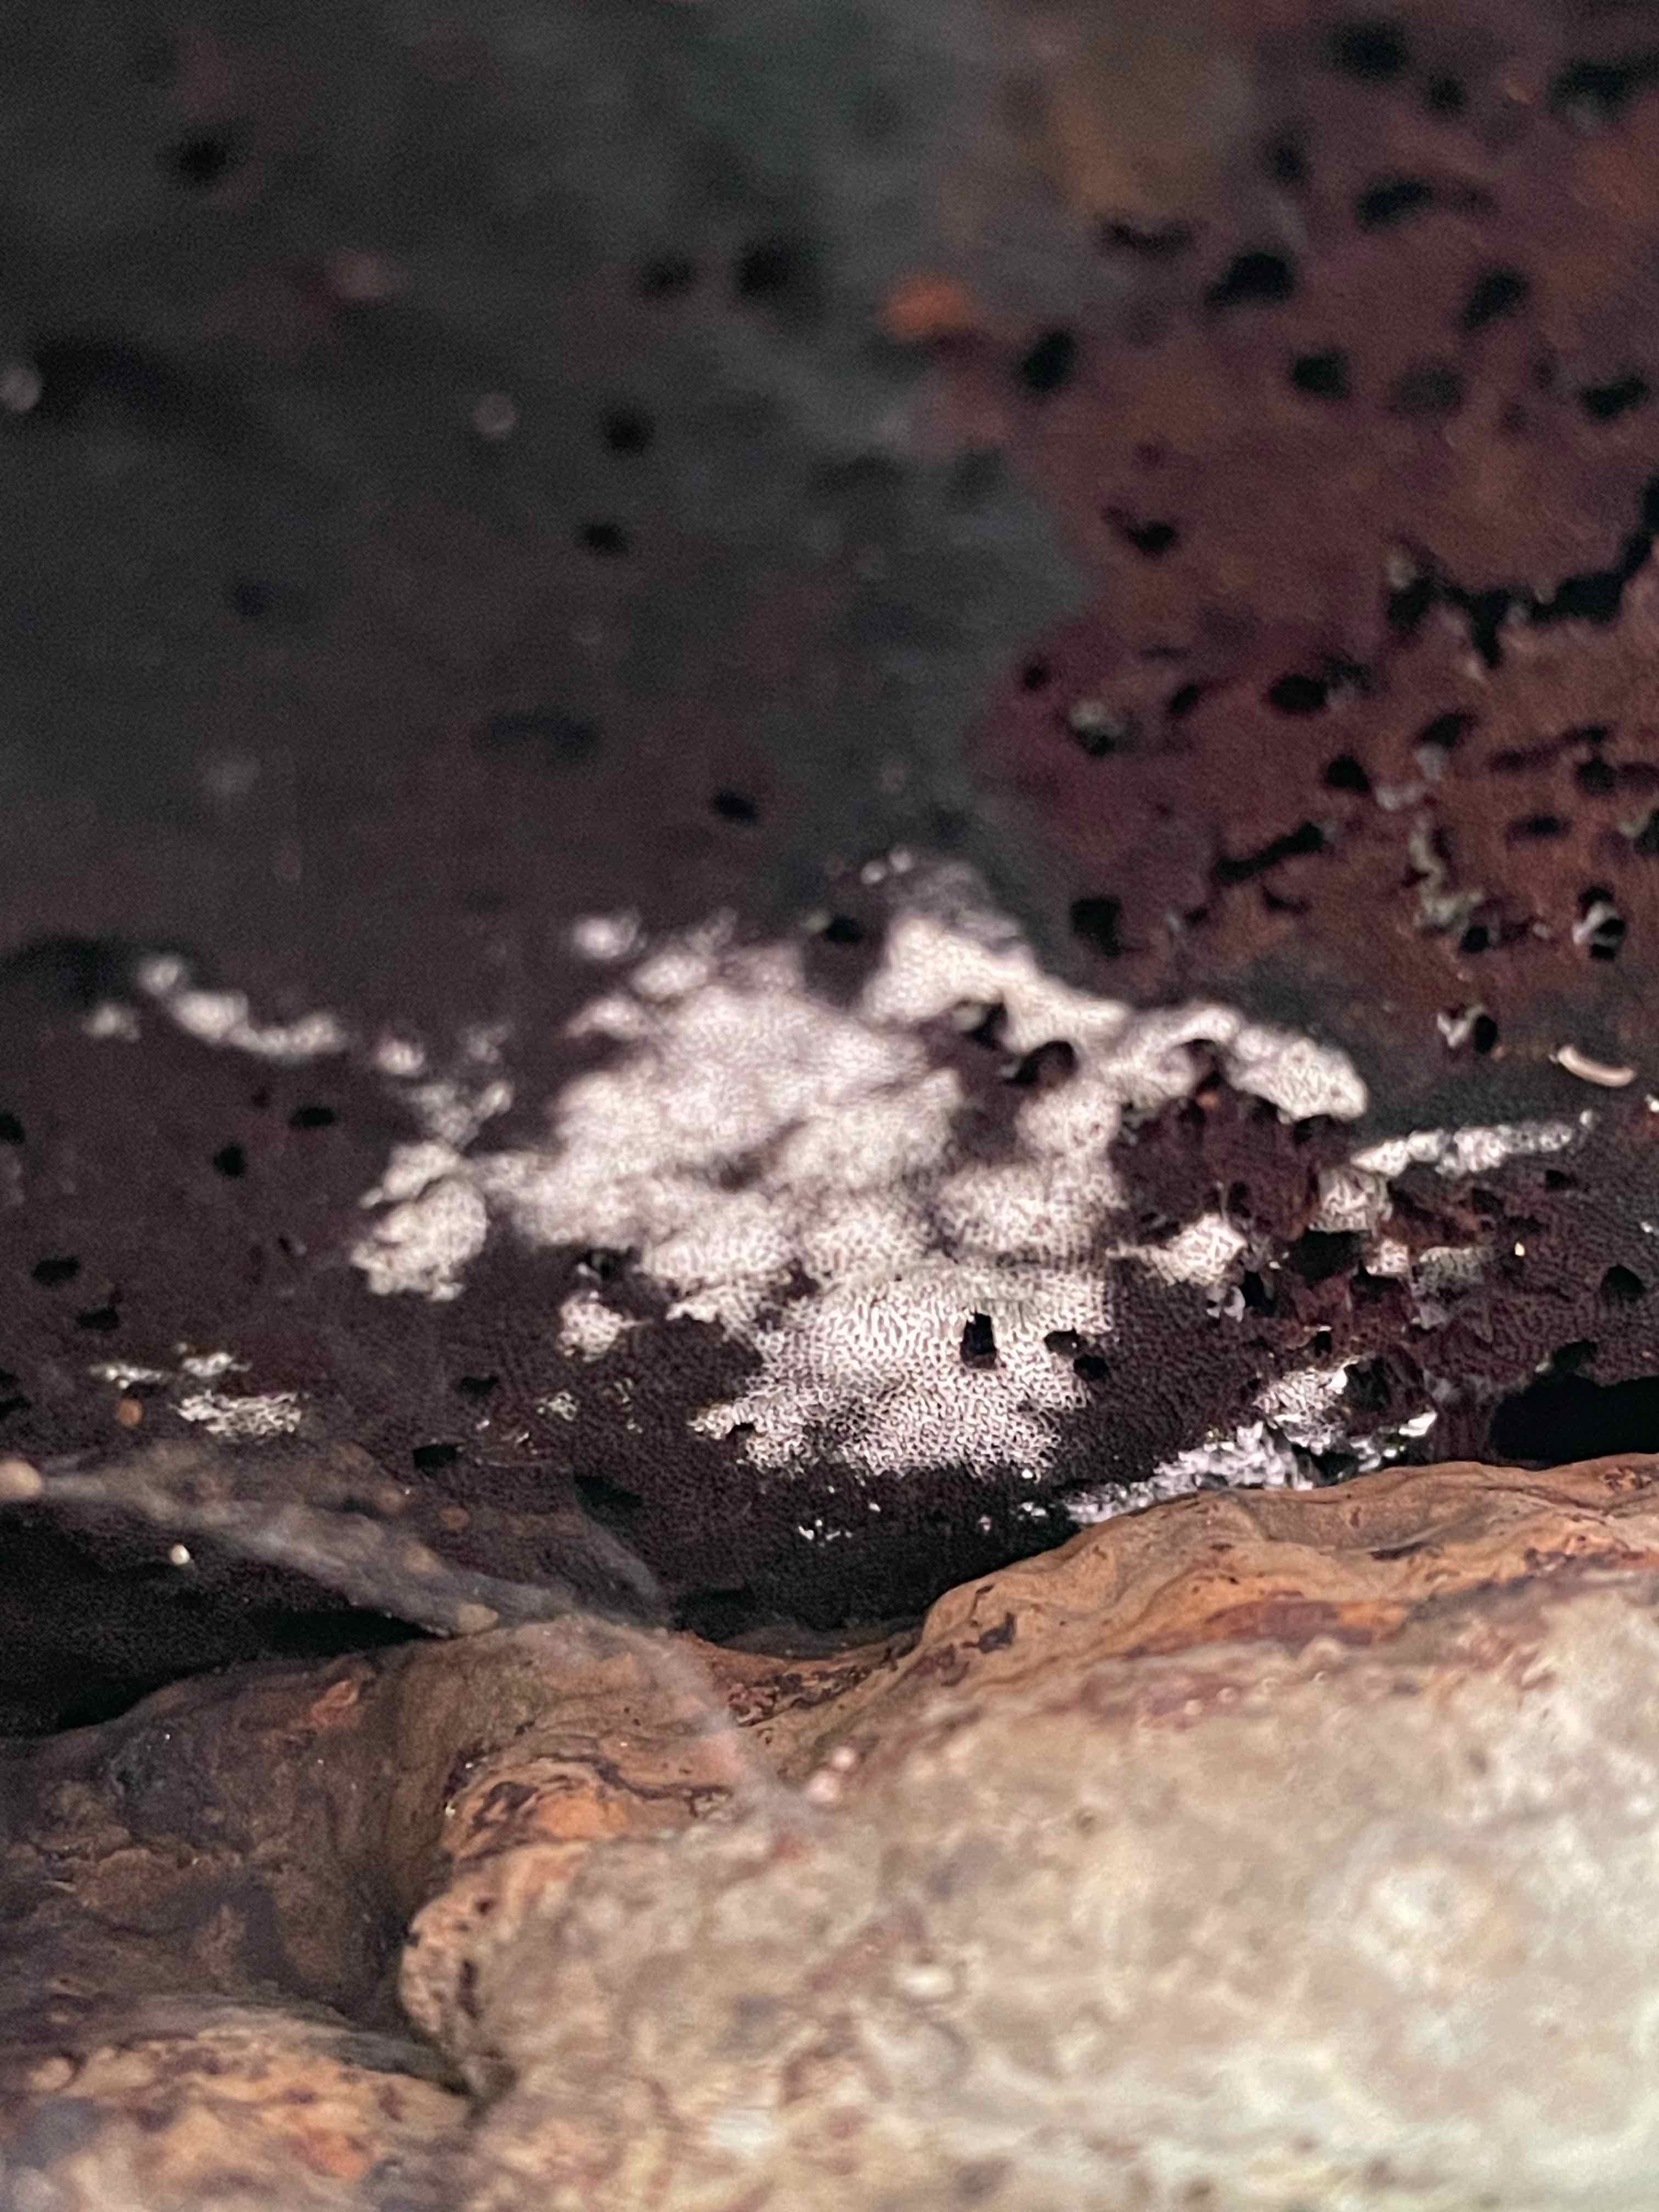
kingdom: Fungi
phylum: Basidiomycota
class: Agaricomycetes
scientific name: Agaricomycetes
